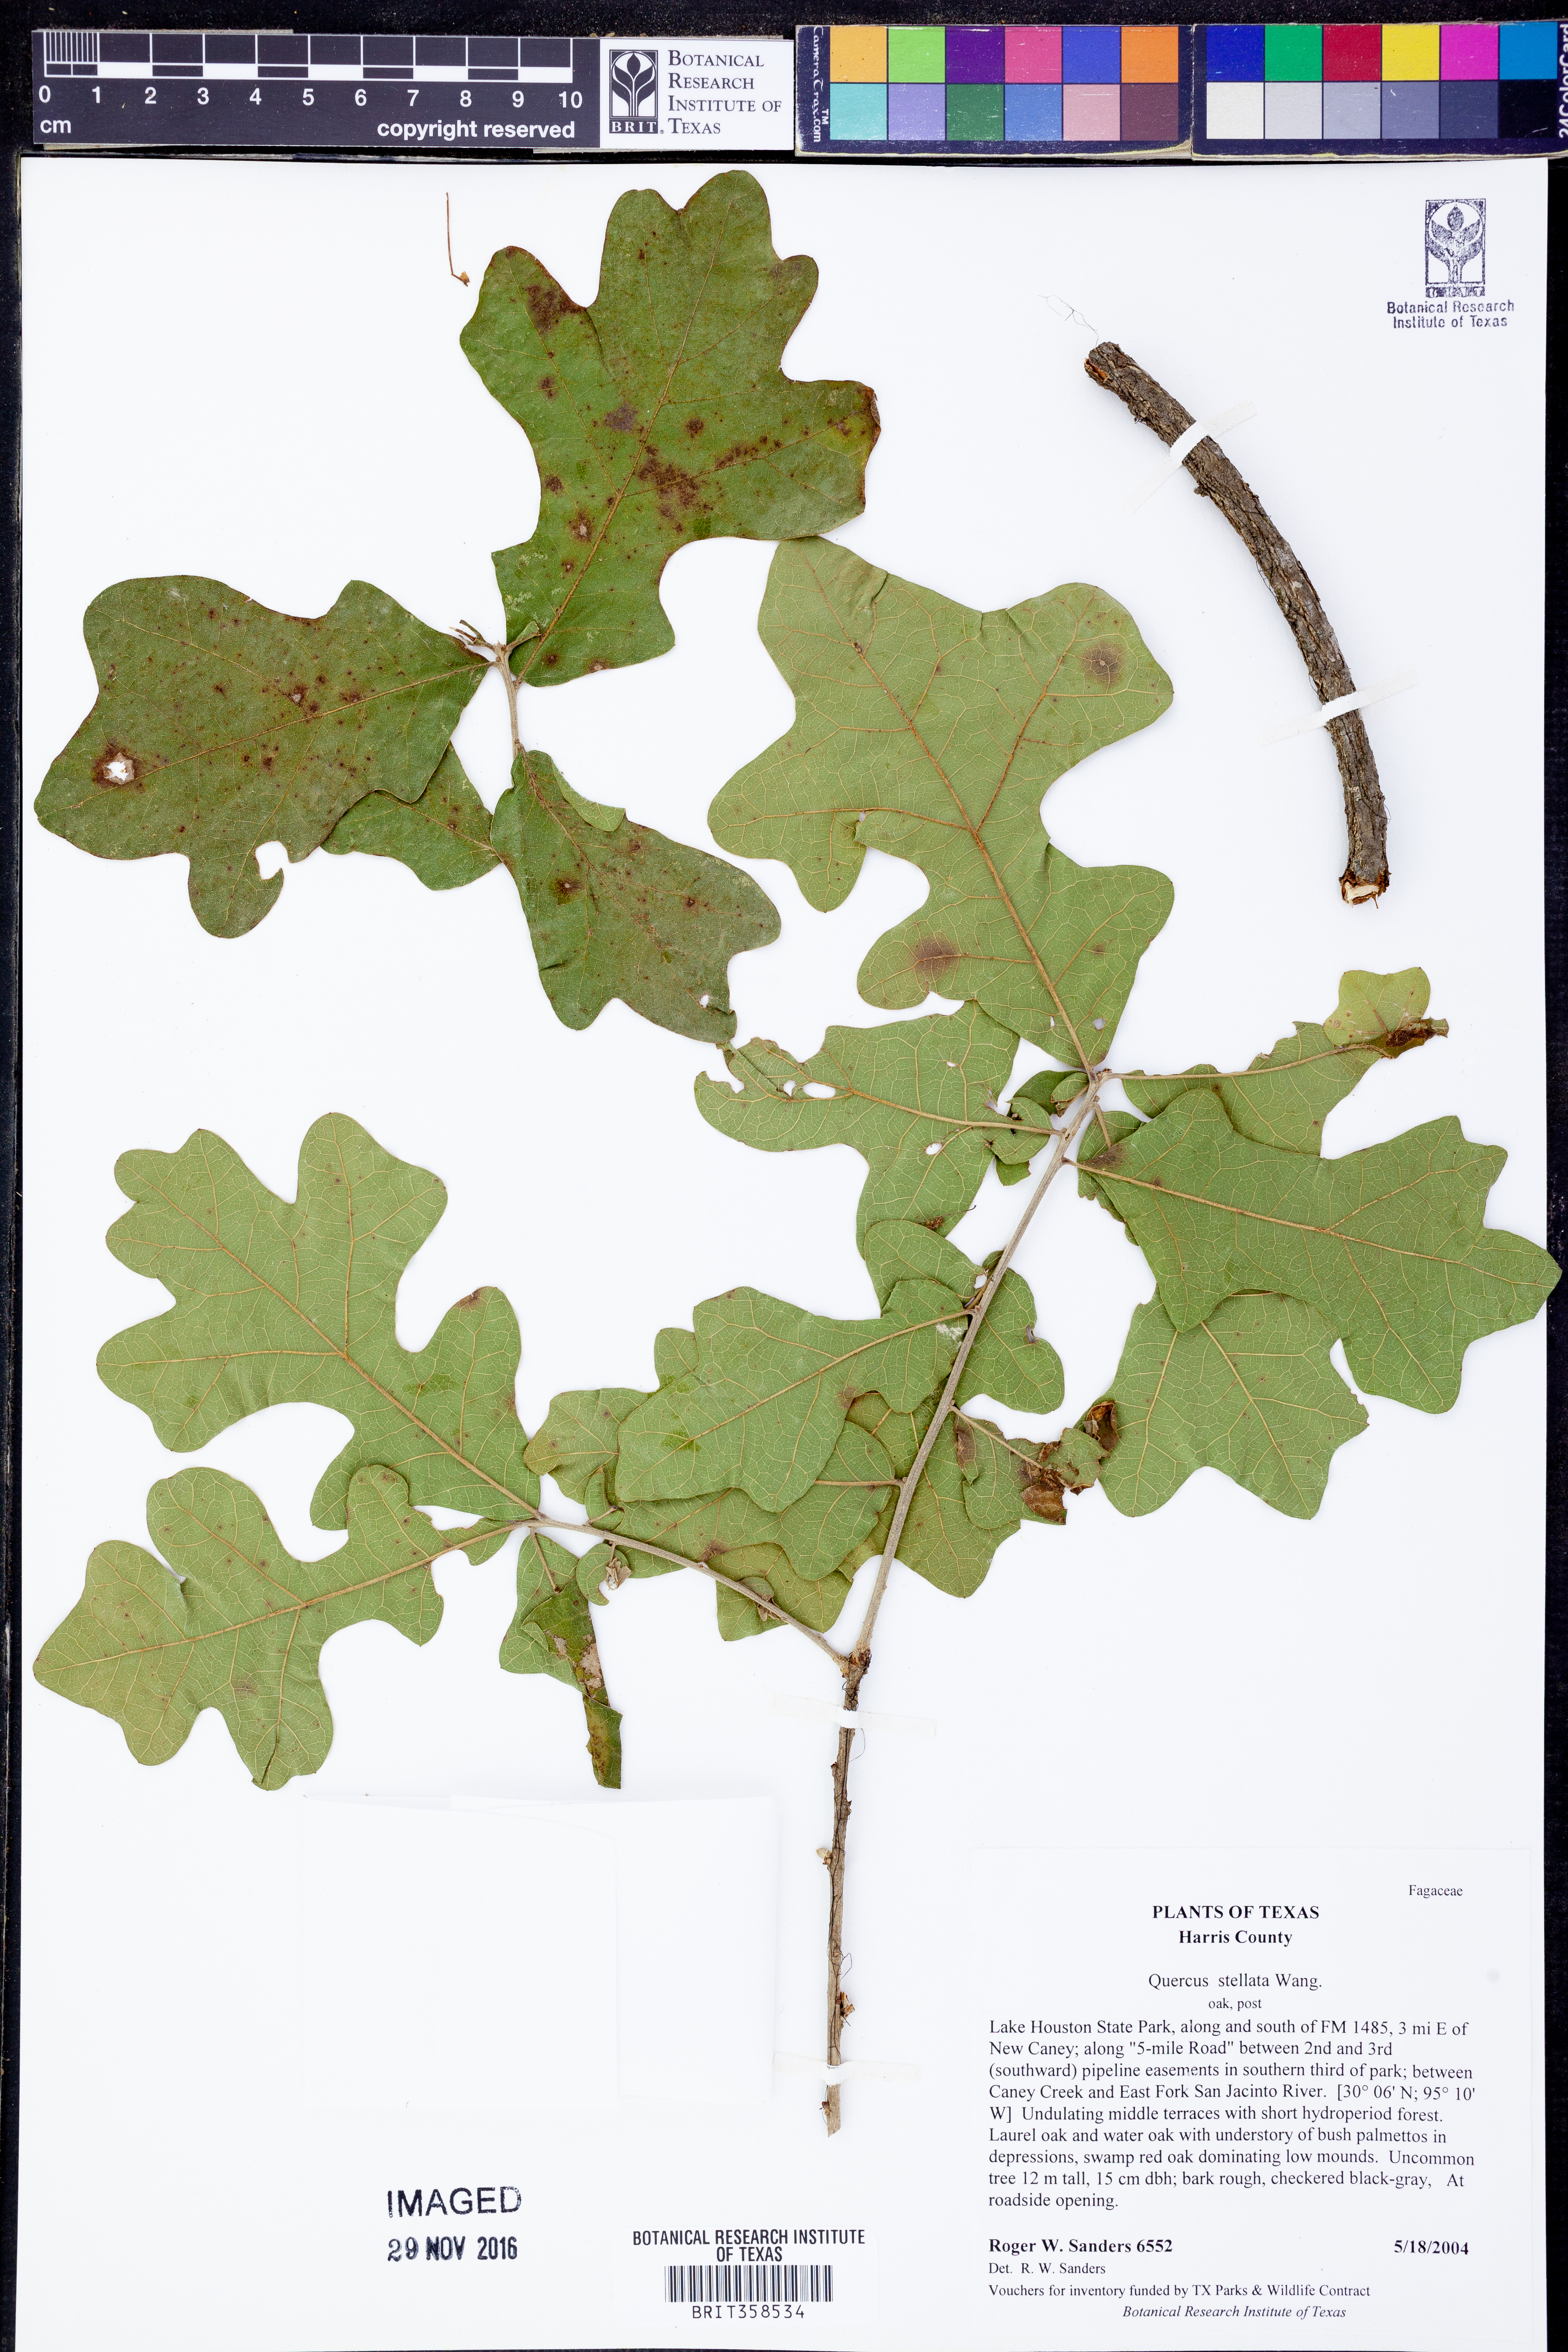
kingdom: Plantae
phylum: Tracheophyta
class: Magnoliopsida
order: Fagales
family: Fagaceae
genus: Quercus
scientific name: Quercus stellata
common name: Post oak
